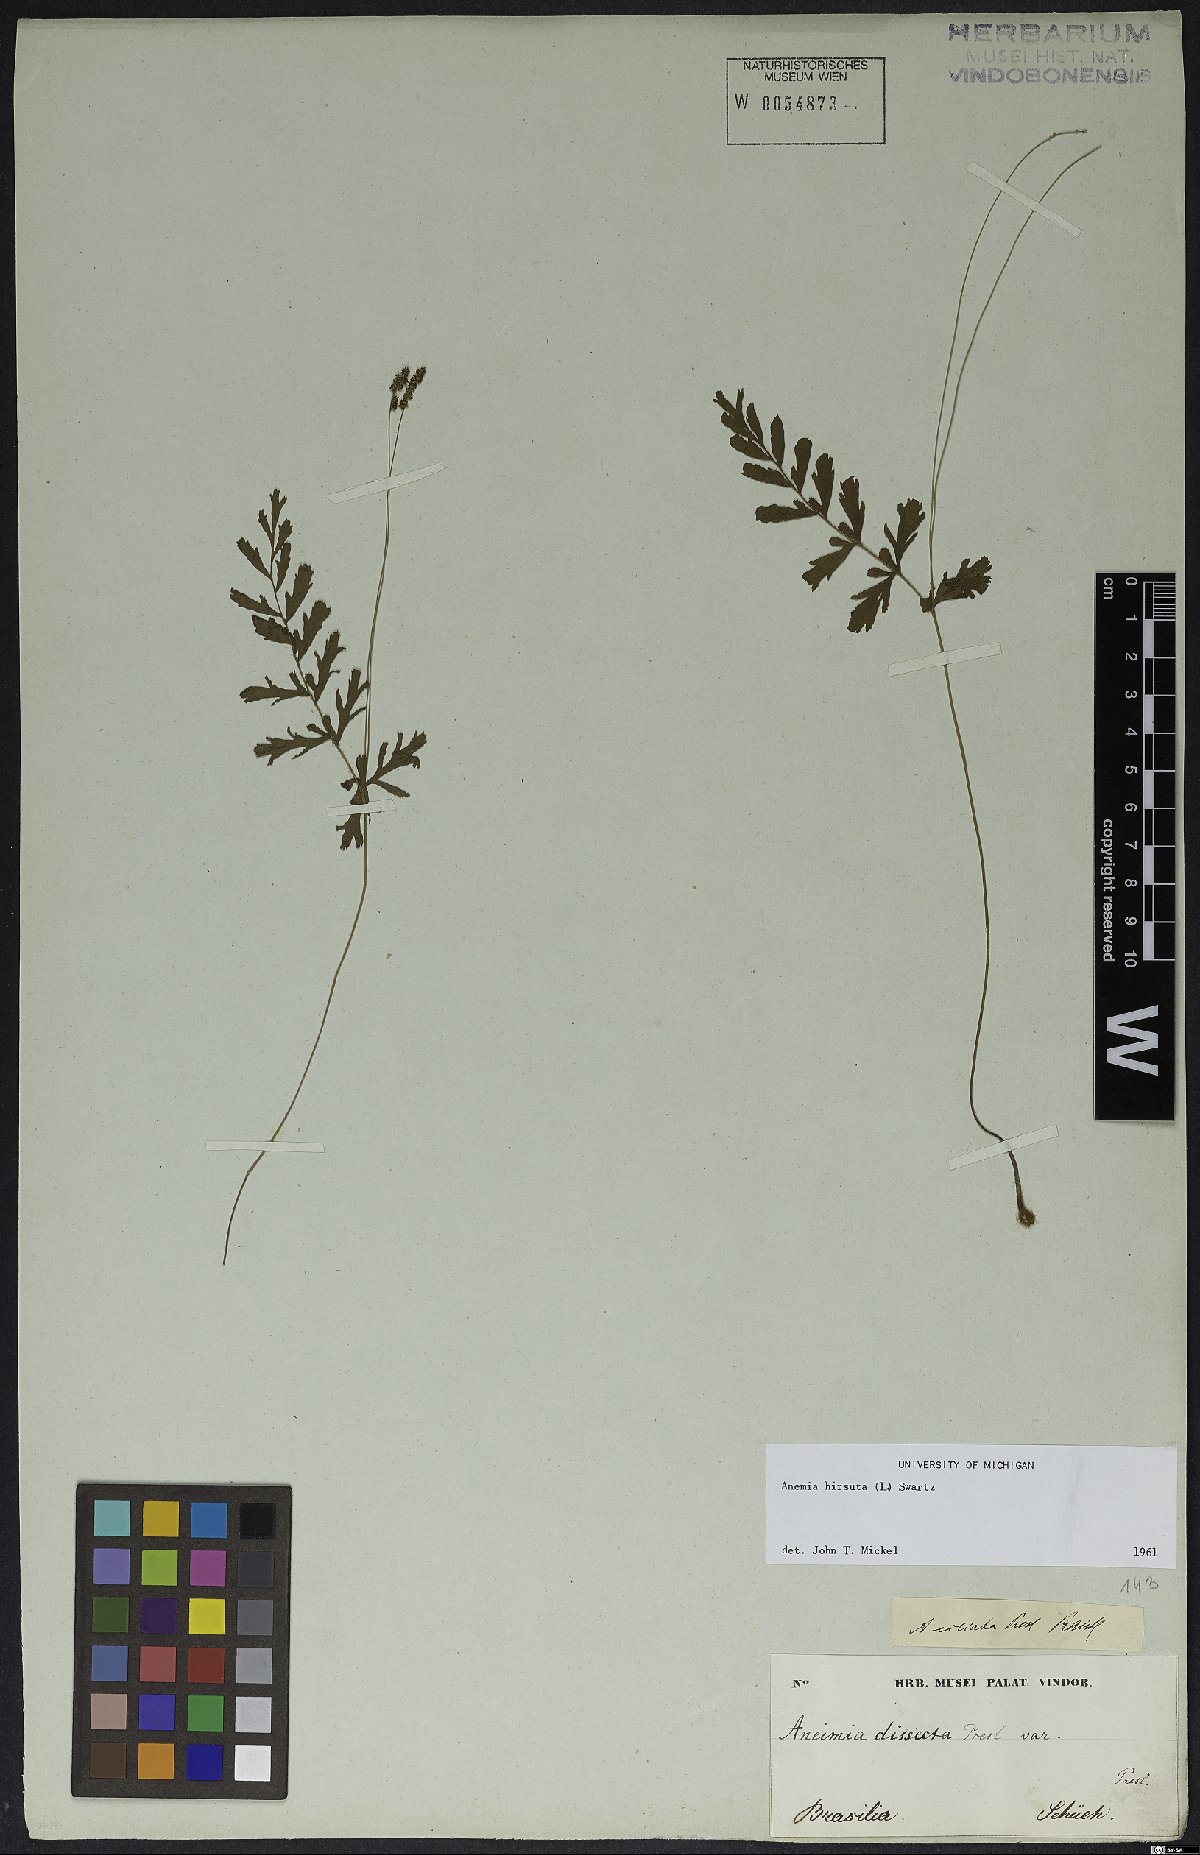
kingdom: Plantae
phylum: Tracheophyta
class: Polypodiopsida
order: Schizaeales
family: Anemiaceae
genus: Anemia
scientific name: Anemia hirsuta
